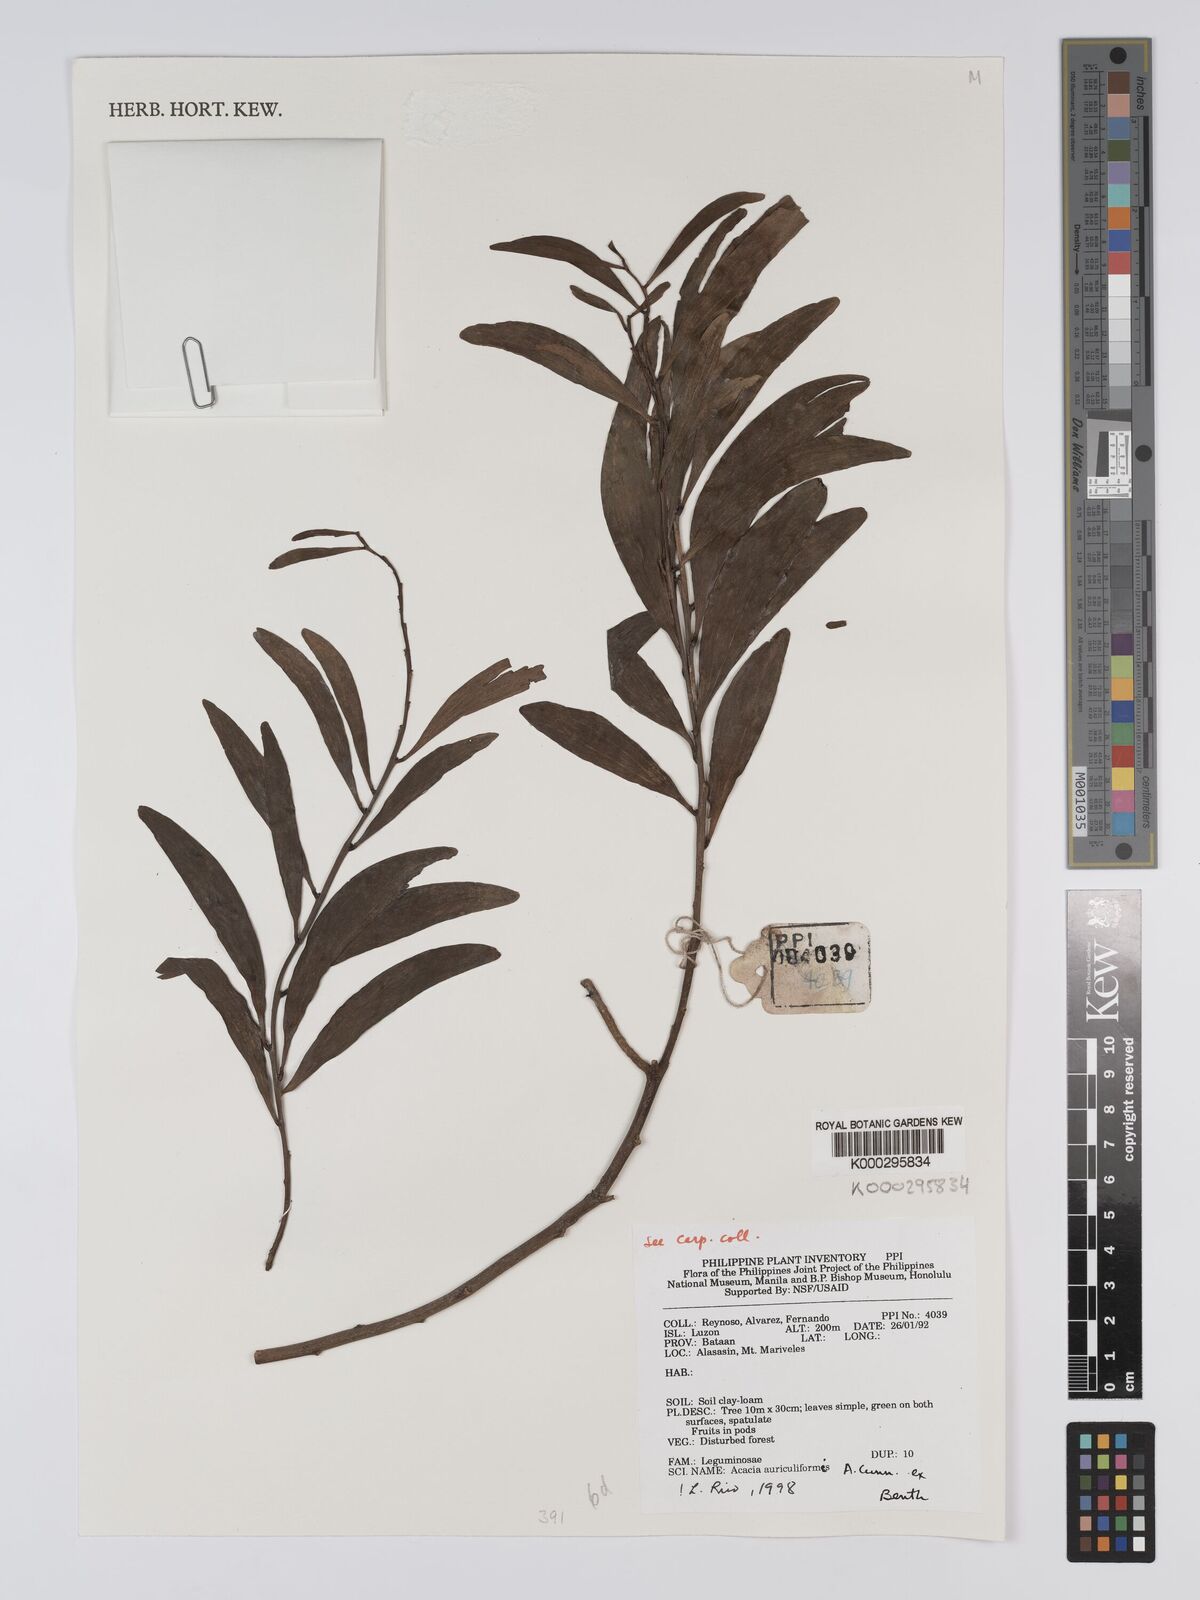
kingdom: Plantae
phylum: Tracheophyta
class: Magnoliopsida
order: Fabales
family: Fabaceae
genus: Acacia
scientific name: Acacia auriculiformis
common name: Earleaf acacia
